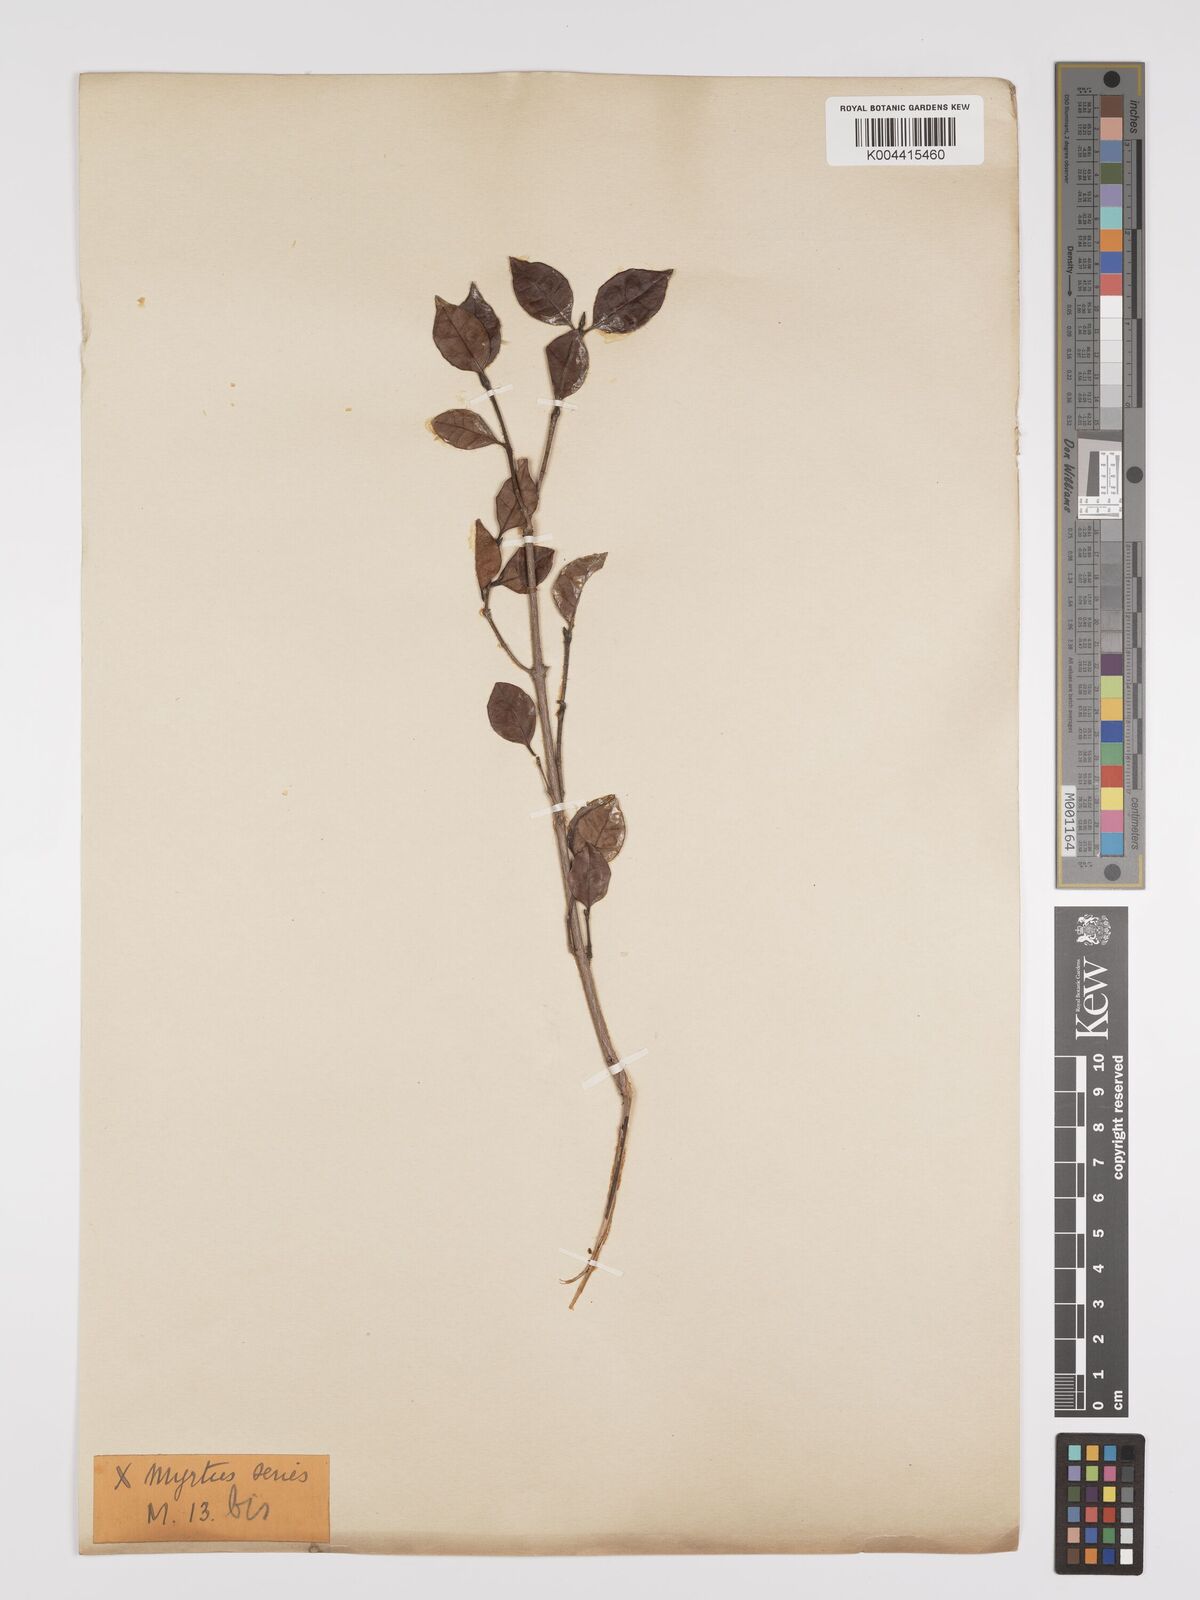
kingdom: Plantae
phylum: Tracheophyta
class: Magnoliopsida
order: Myrtales
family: Myrtaceae
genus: Lophomyrtus
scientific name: Lophomyrtus bullata
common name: Rama rama
